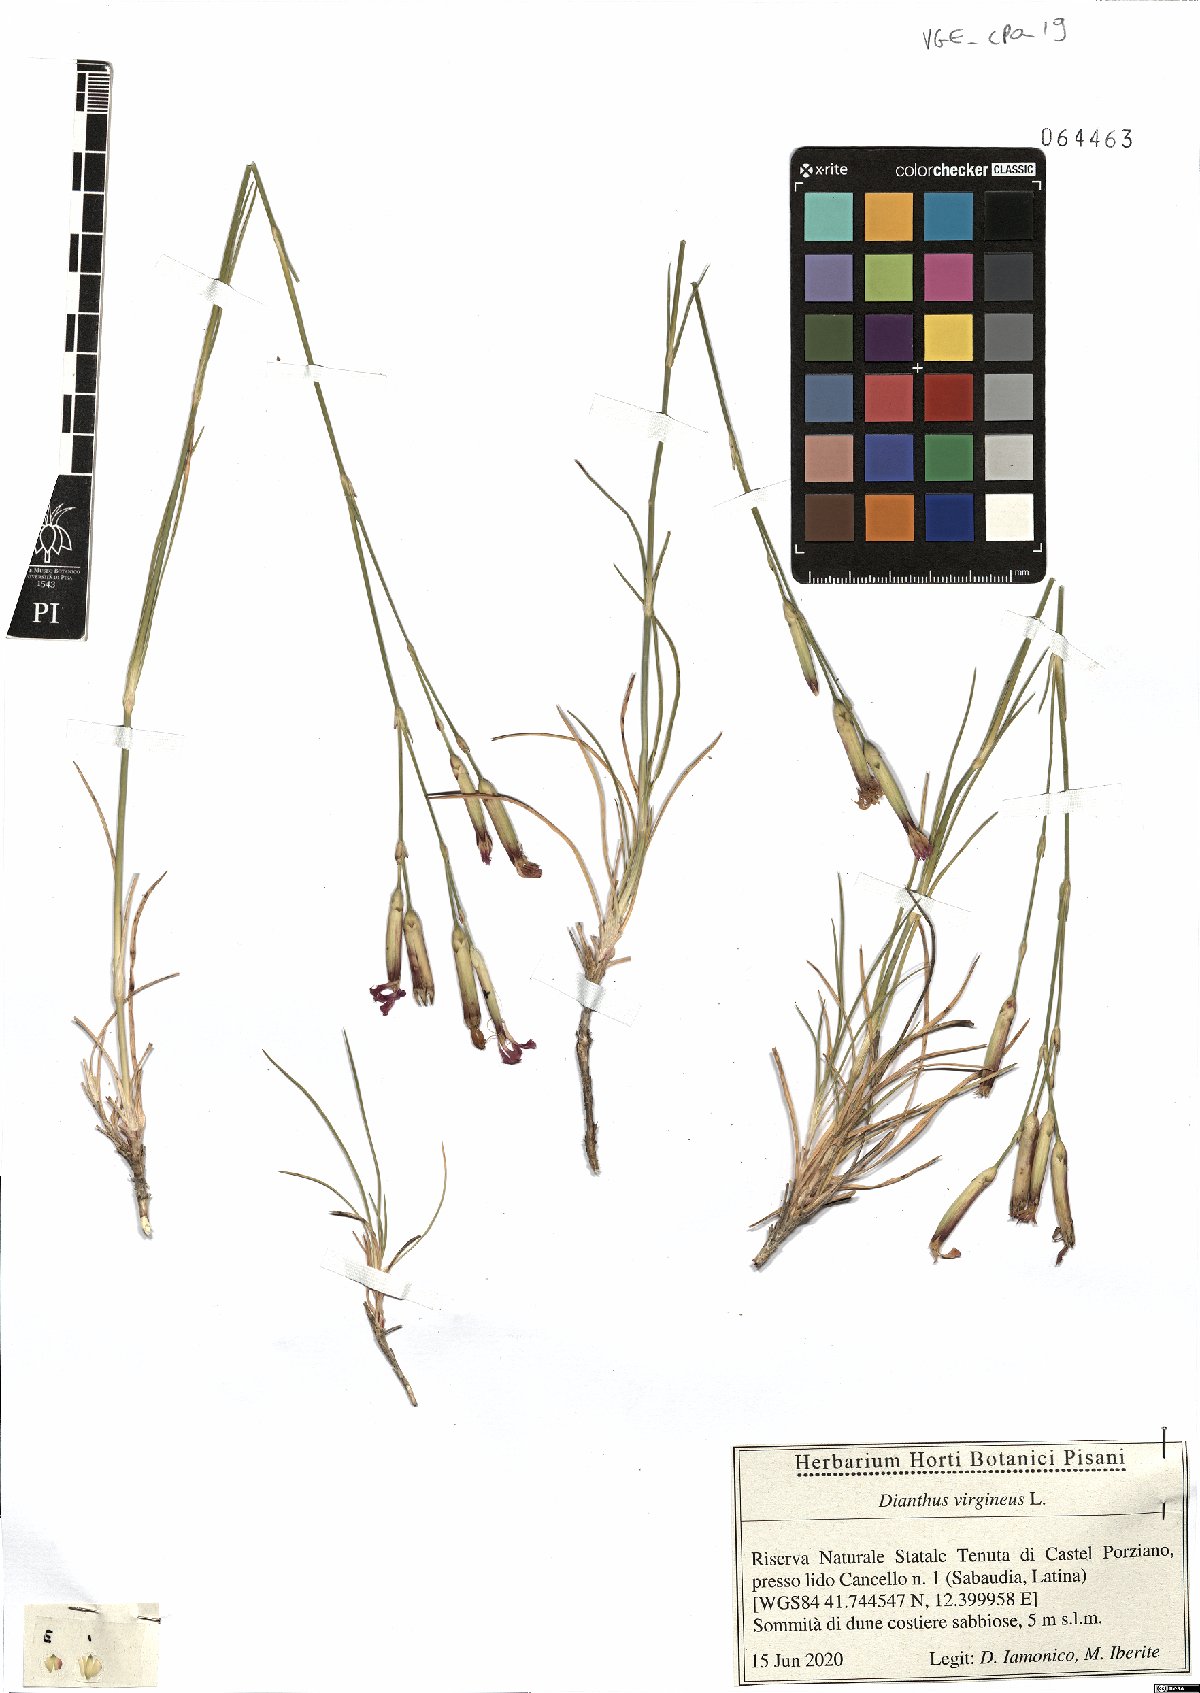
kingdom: Plantae
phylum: Tracheophyta
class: Magnoliopsida
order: Caryophyllales
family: Caryophyllaceae
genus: Dianthus
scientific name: Dianthus virgineus
